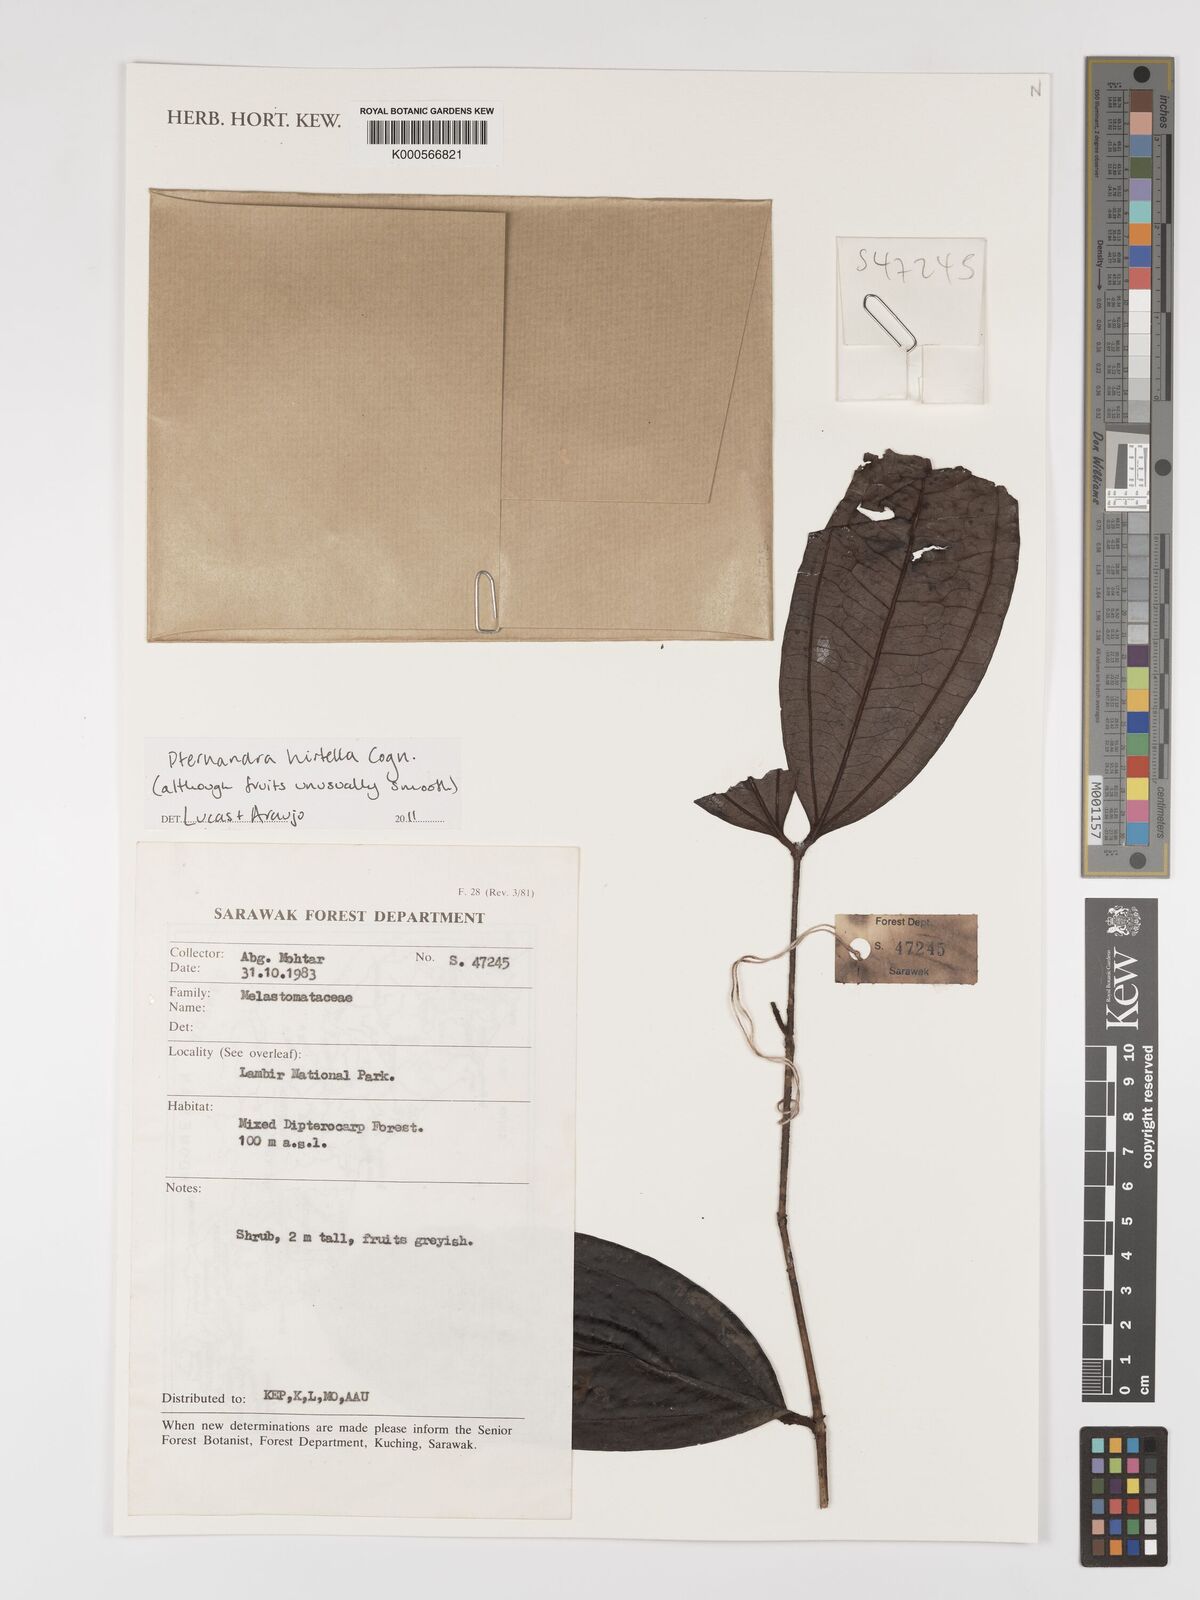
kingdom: Plantae
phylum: Tracheophyta
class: Magnoliopsida
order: Myrtales
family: Melastomataceae
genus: Pternandra
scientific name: Pternandra hirtella
